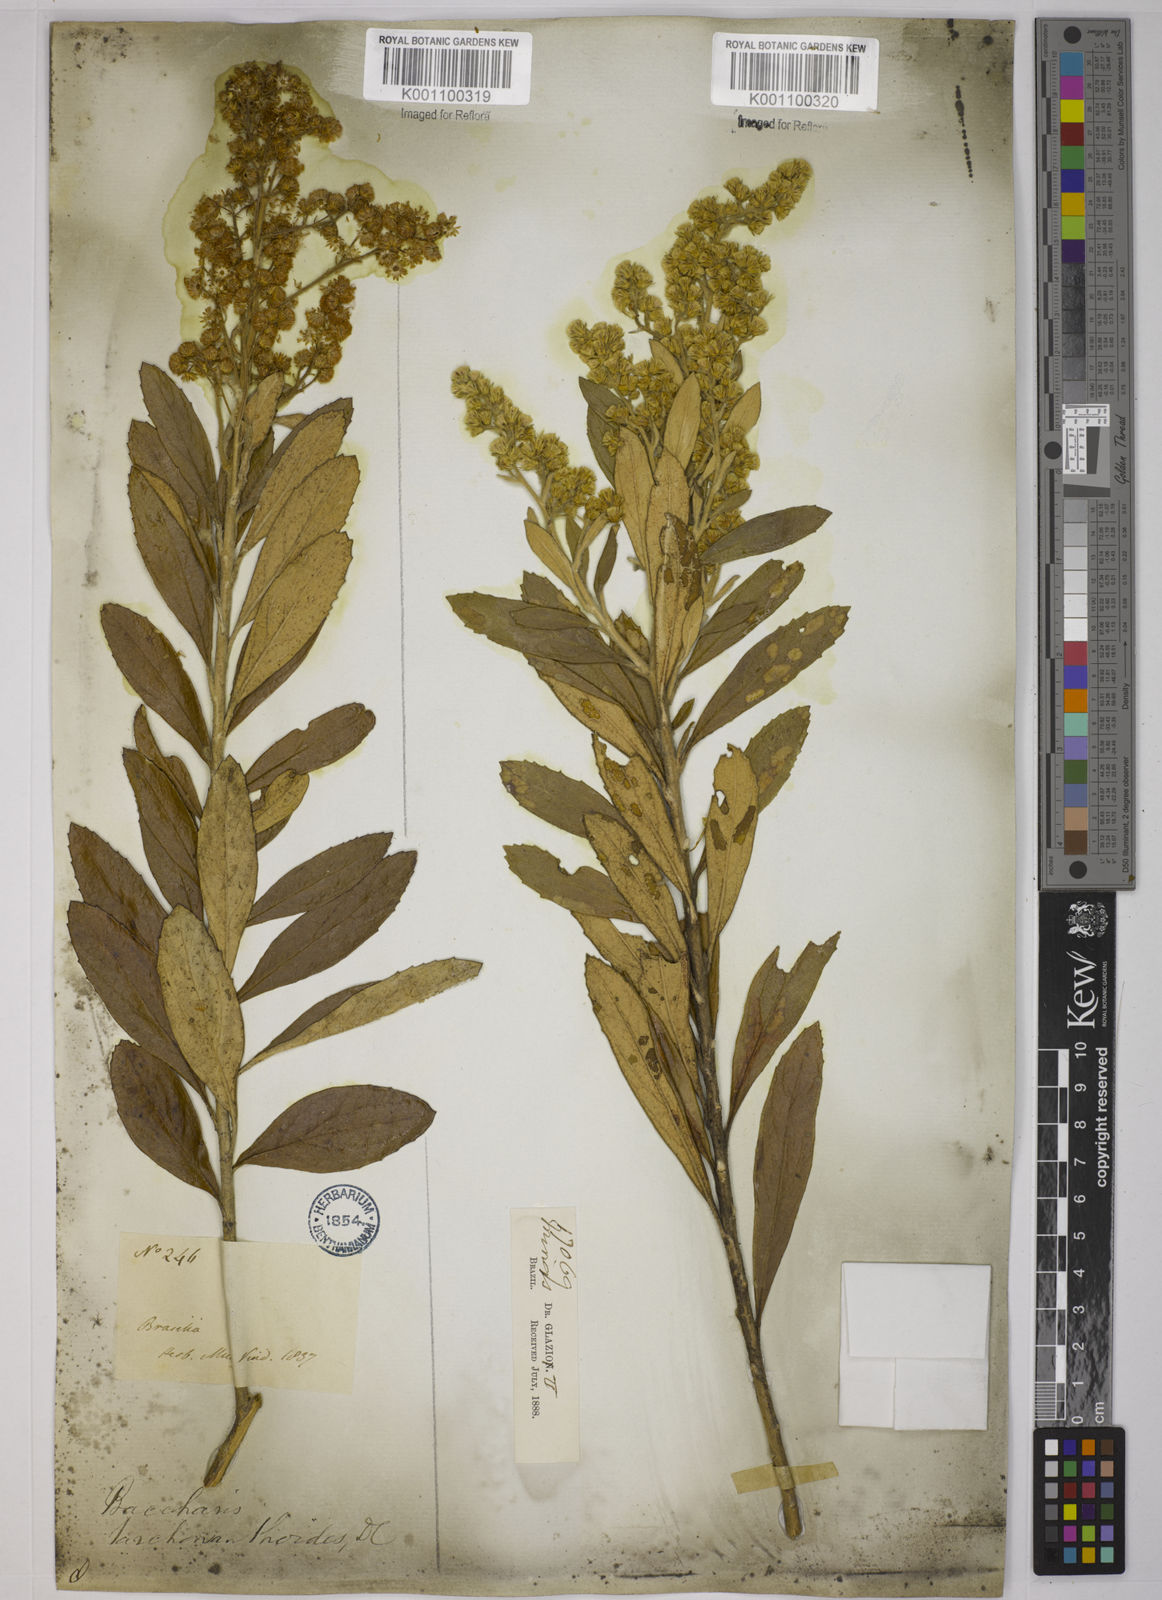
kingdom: Plantae
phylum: Tracheophyta
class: Magnoliopsida
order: Asterales
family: Asteraceae
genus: Baccharis
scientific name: Baccharis
